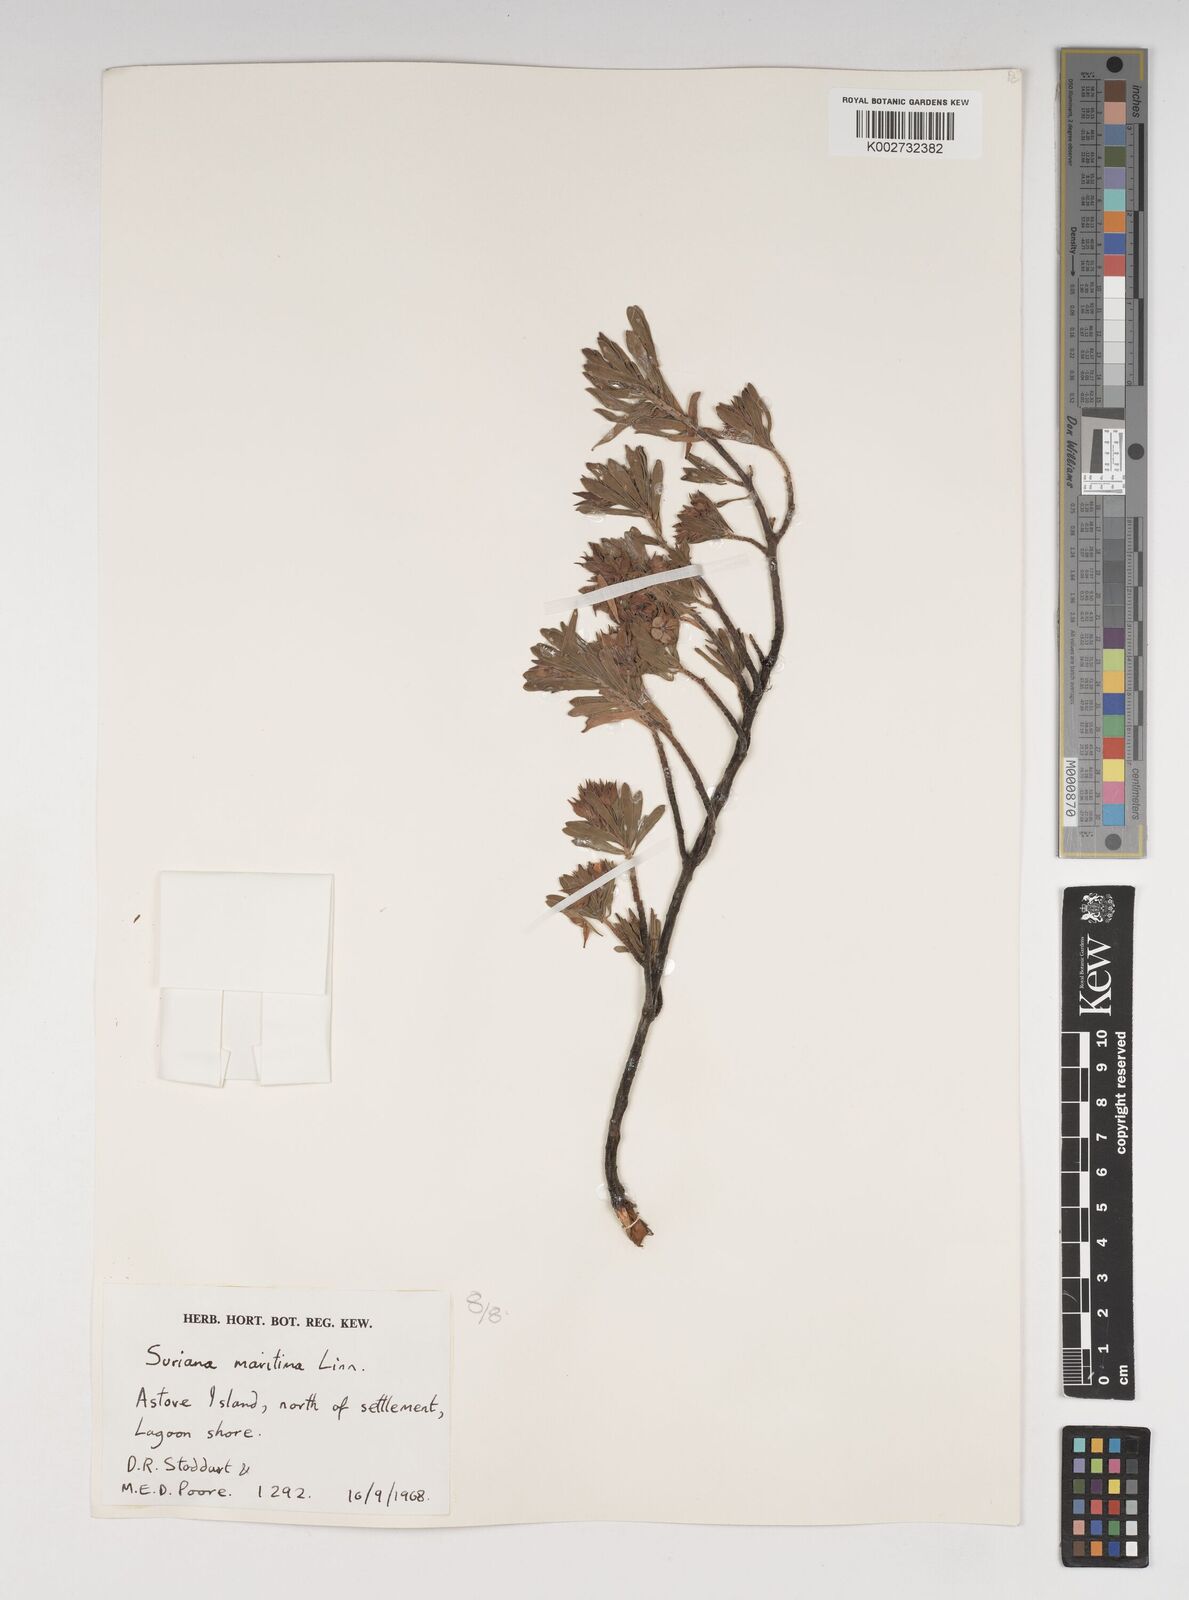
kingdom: Plantae
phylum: Tracheophyta
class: Magnoliopsida
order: Fabales
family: Surianaceae
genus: Suriana
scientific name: Suriana maritima
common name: Bay-cedar
